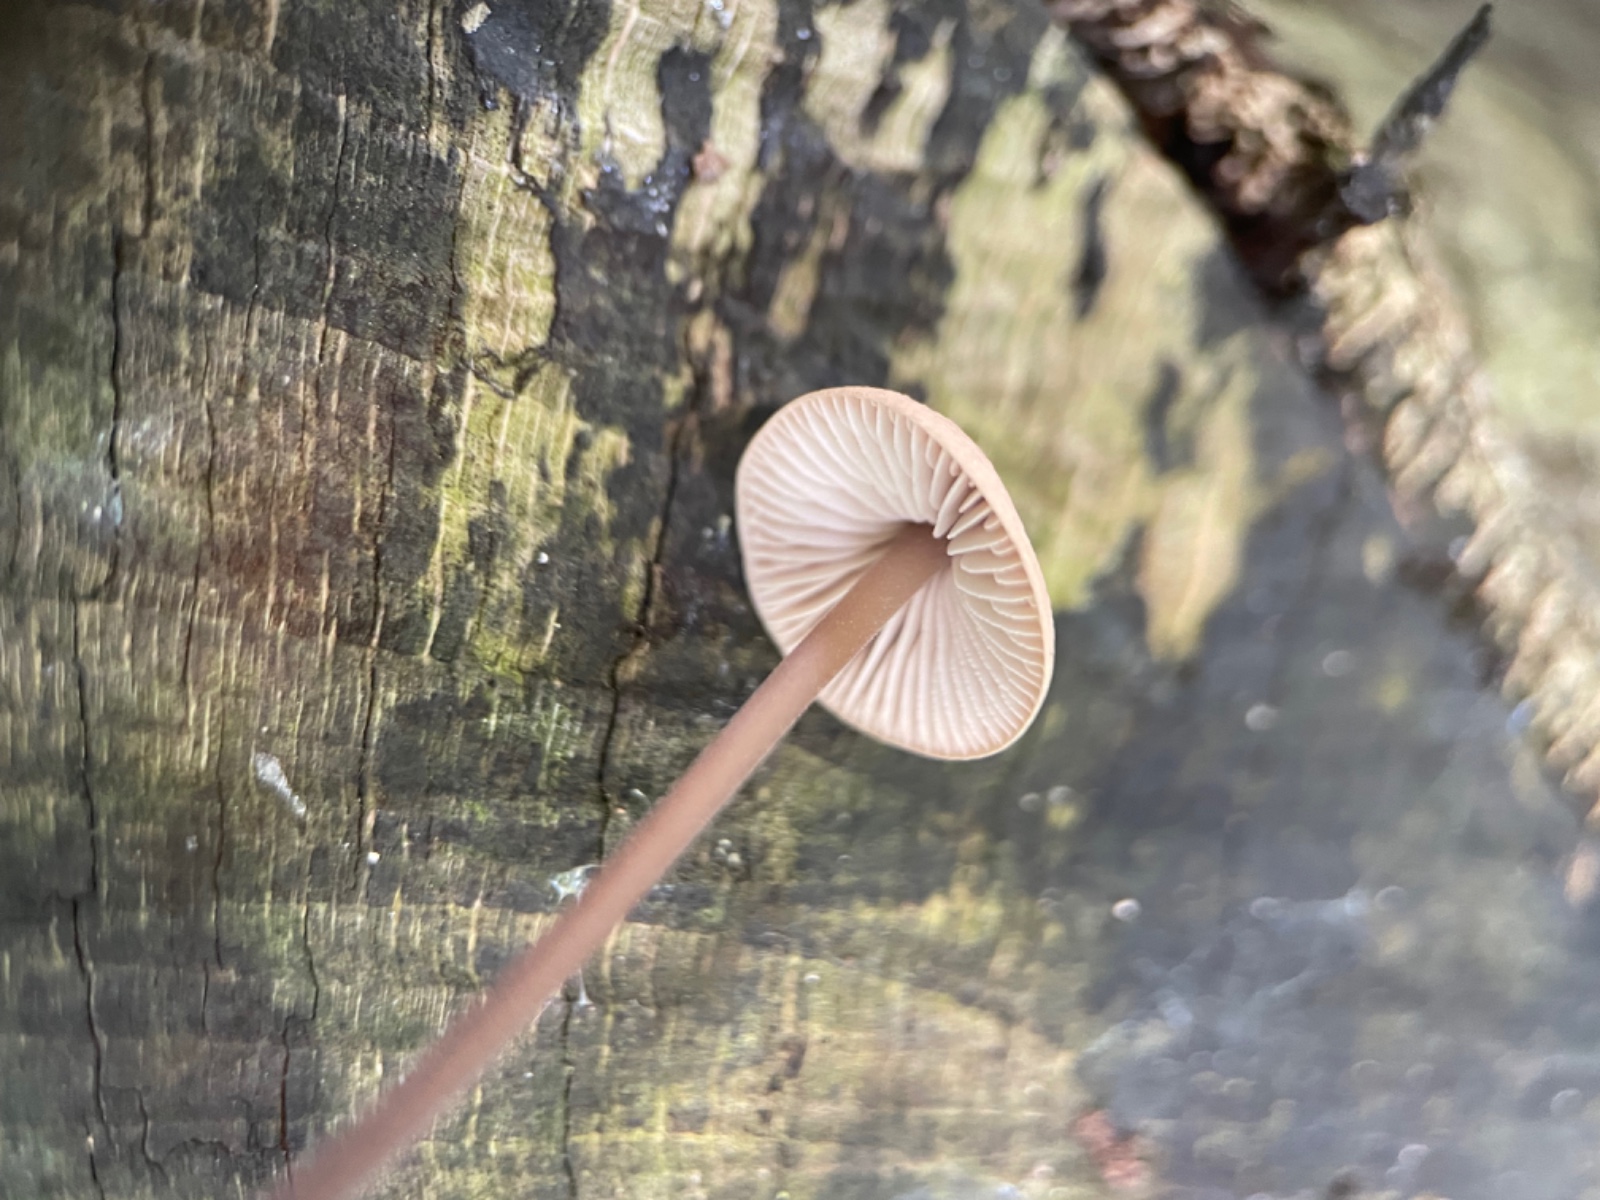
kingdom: Fungi
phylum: Basidiomycota
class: Agaricomycetes
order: Agaricales
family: Omphalotaceae
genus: Mycetinis
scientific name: Mycetinis alliaceus
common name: stor løghat
